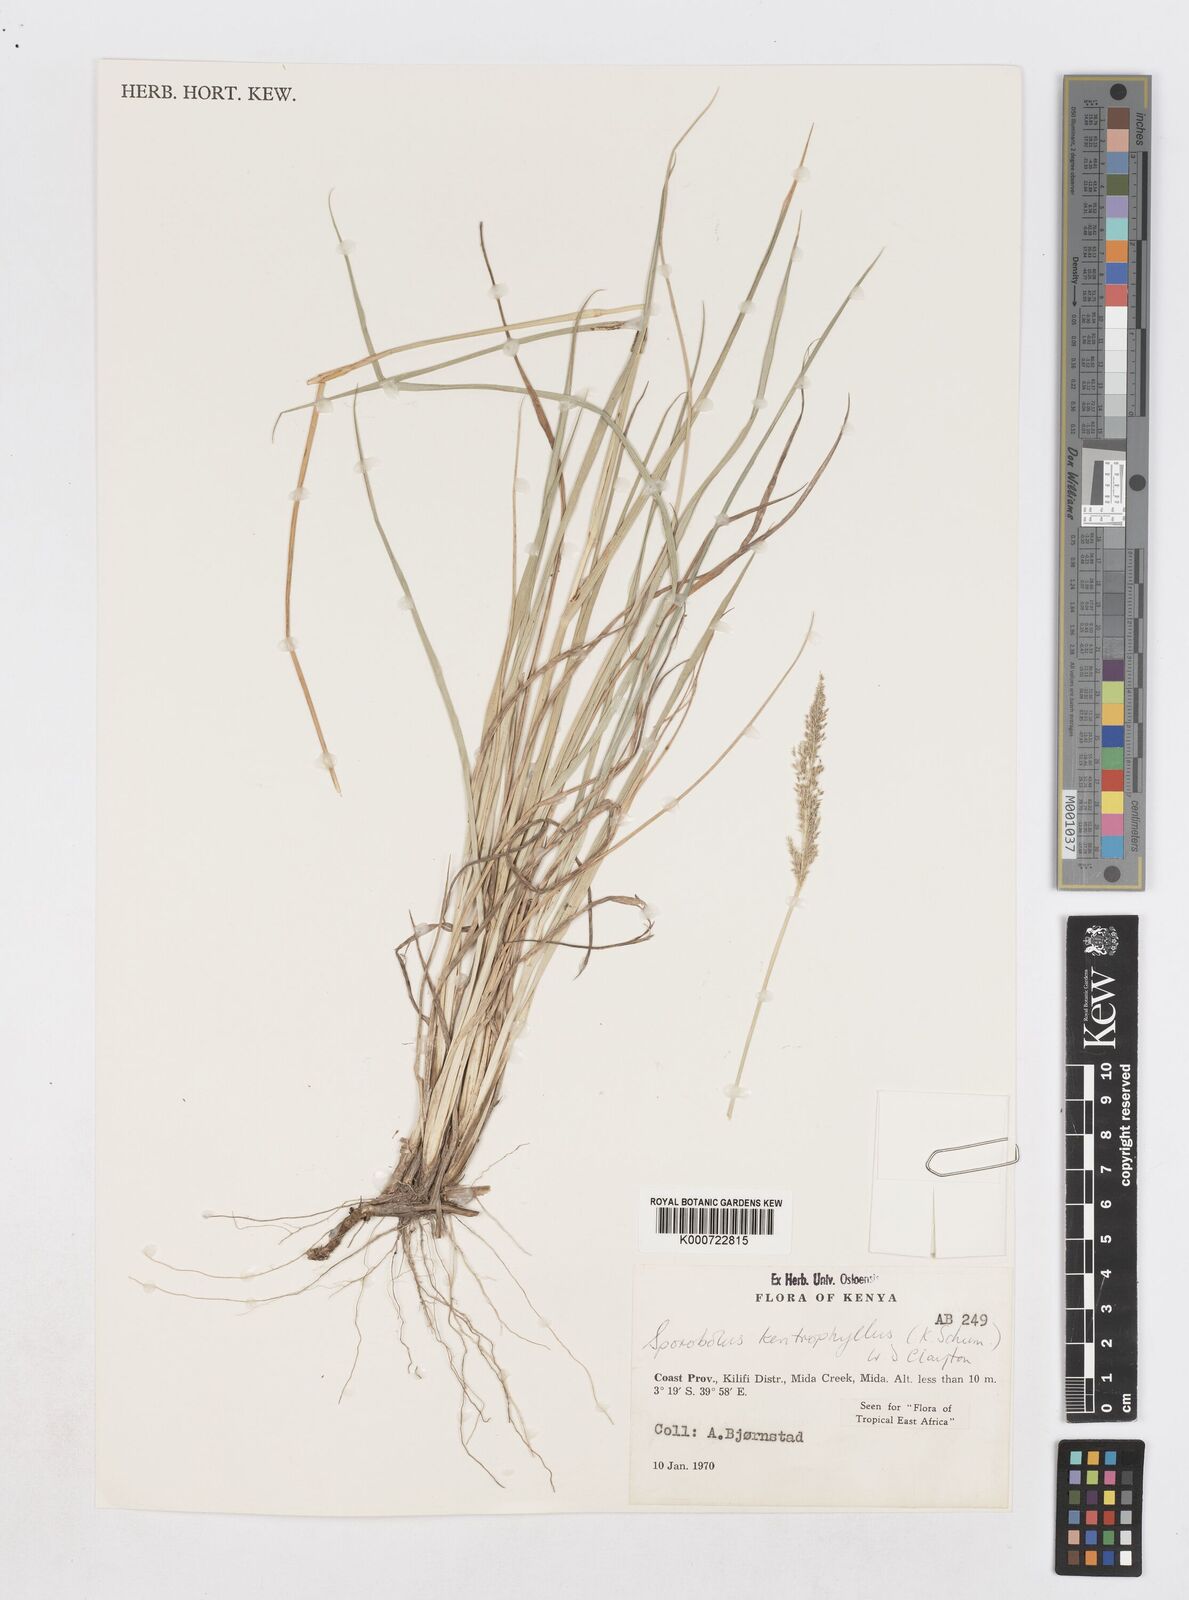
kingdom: Plantae
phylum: Tracheophyta
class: Liliopsida
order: Poales
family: Poaceae
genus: Sporobolus
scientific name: Sporobolus ioclados
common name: Pan dropseed
